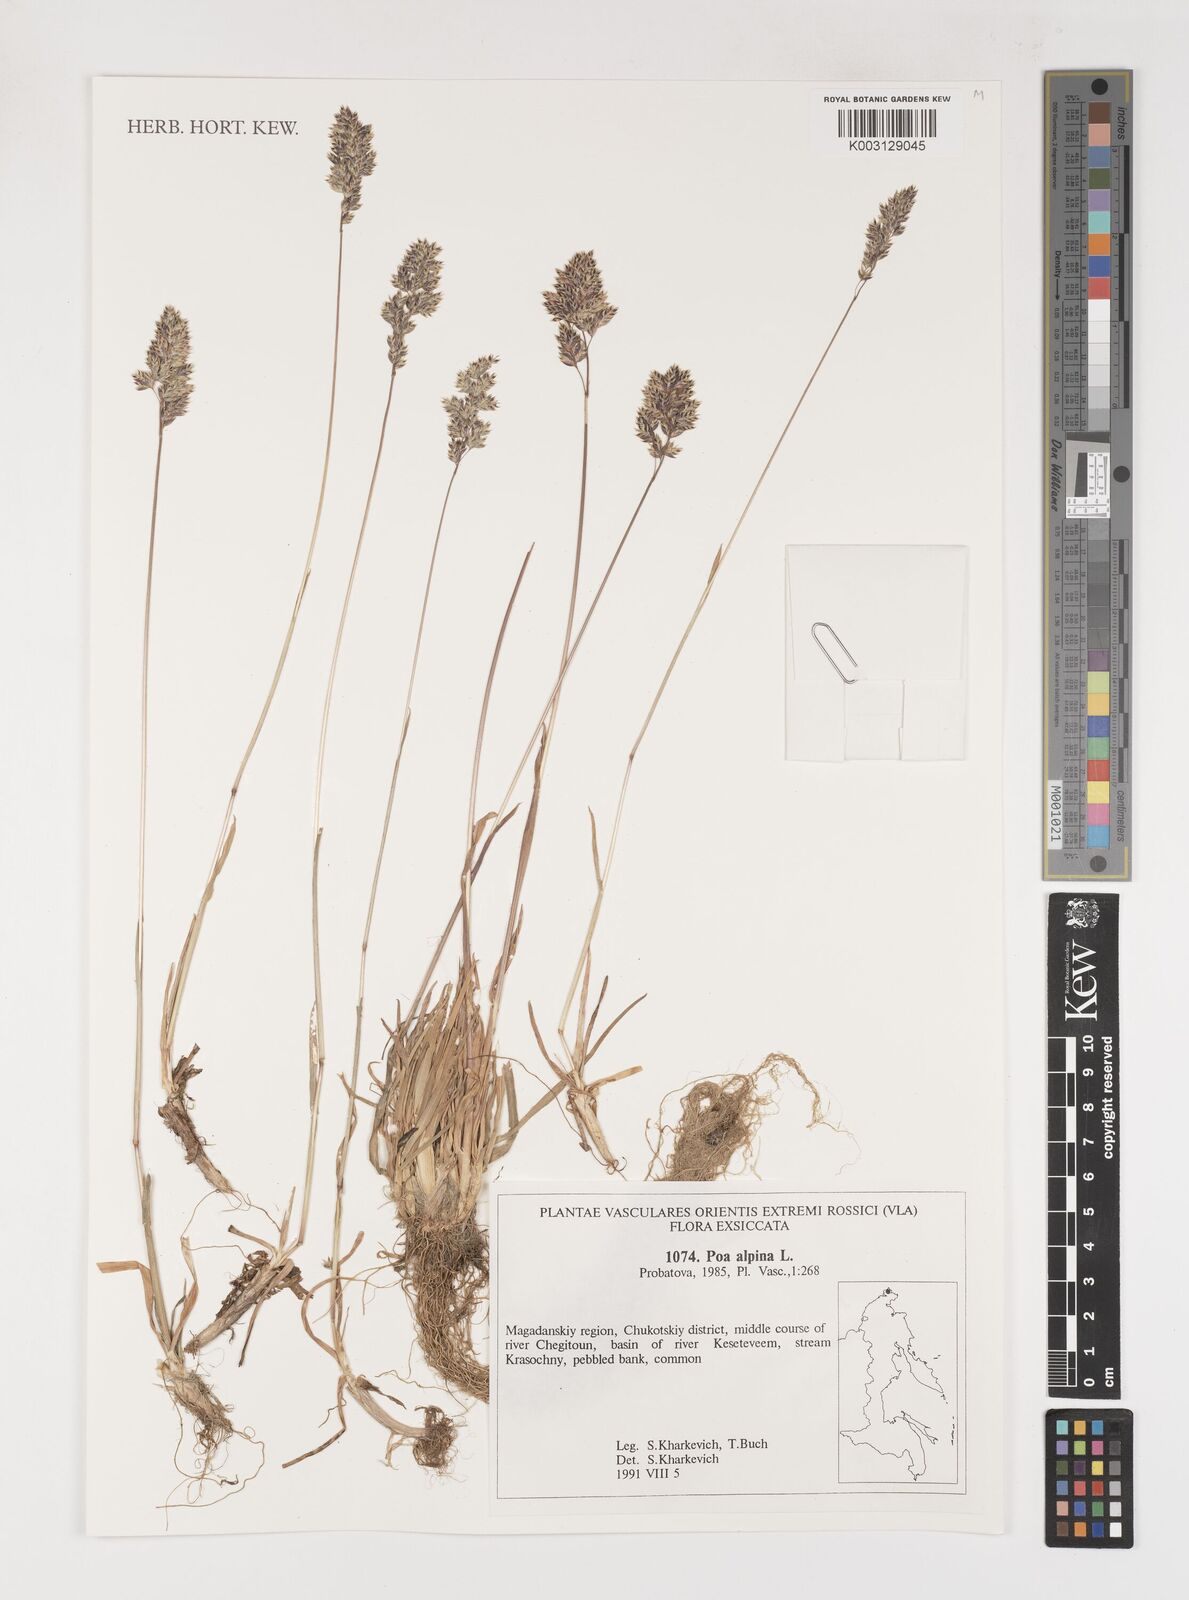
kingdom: Plantae
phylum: Tracheophyta
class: Liliopsida
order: Poales
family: Poaceae
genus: Poa
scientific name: Poa alpina
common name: Alpine bluegrass
